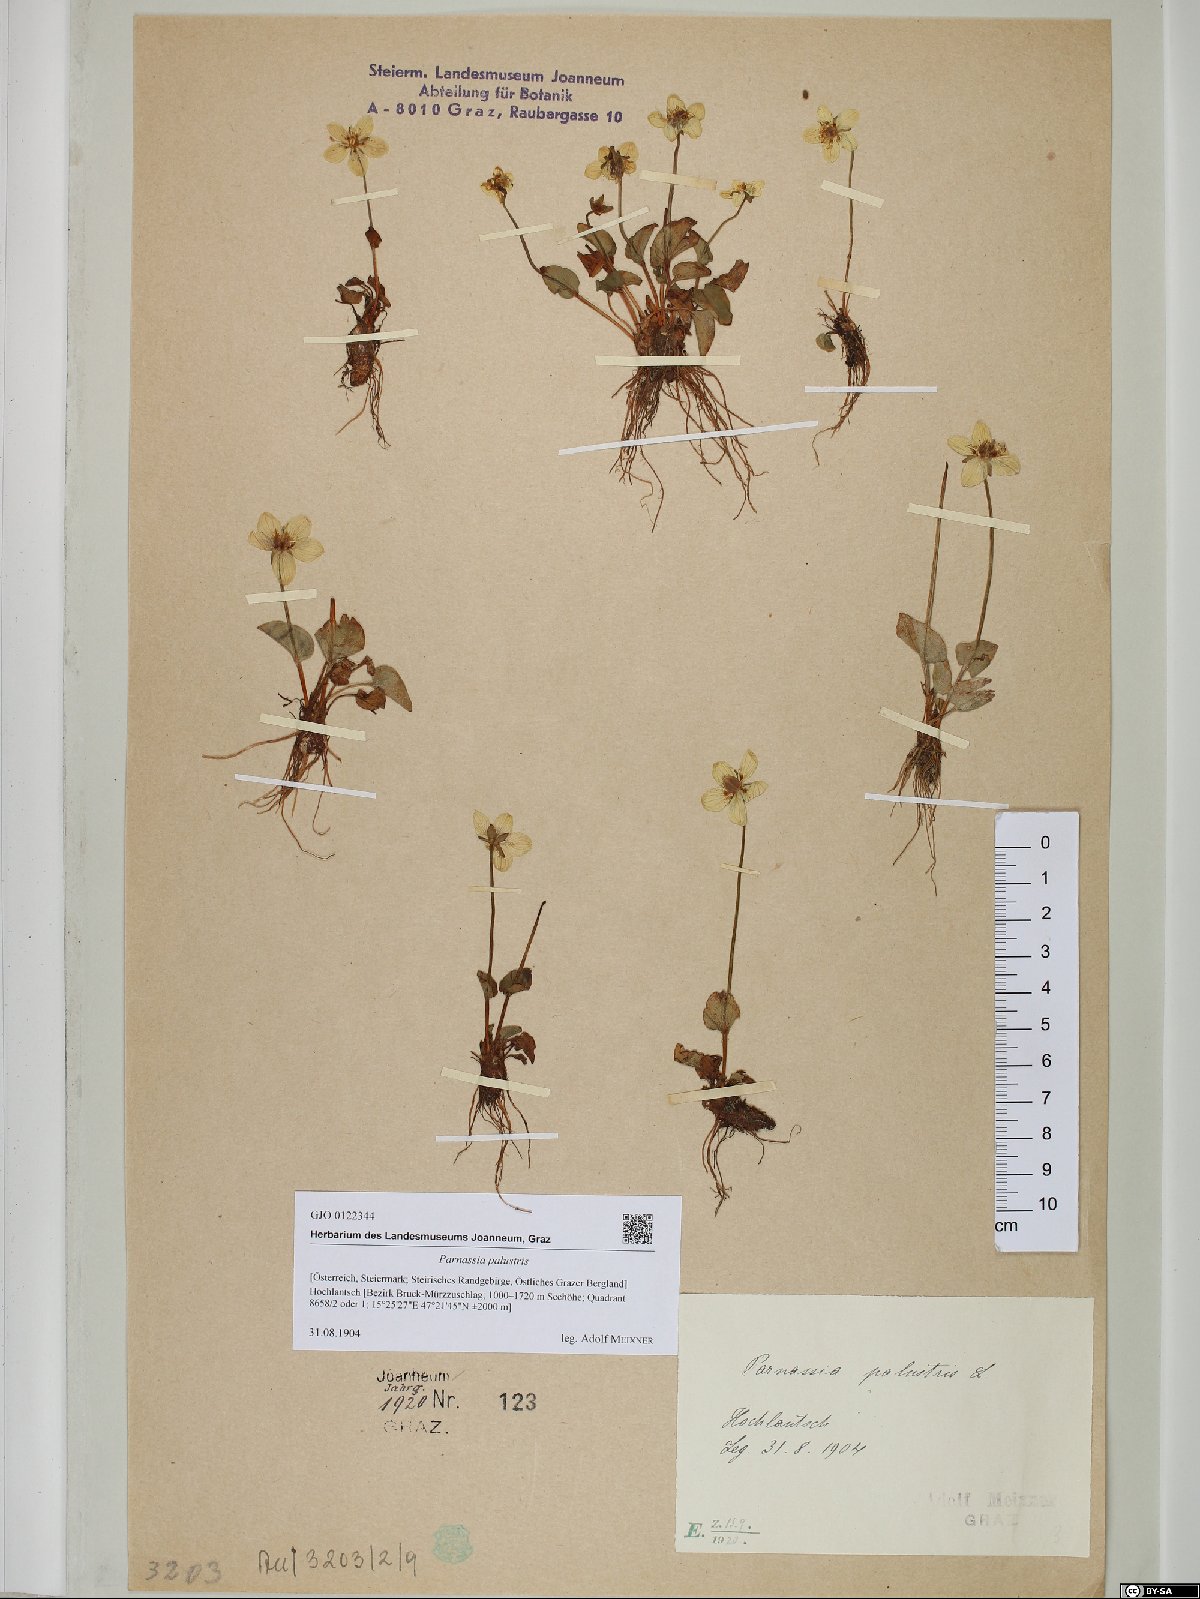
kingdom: Plantae
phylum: Tracheophyta
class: Magnoliopsida
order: Celastrales
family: Parnassiaceae
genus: Parnassia
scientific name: Parnassia palustris
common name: Grass-of-parnassus
